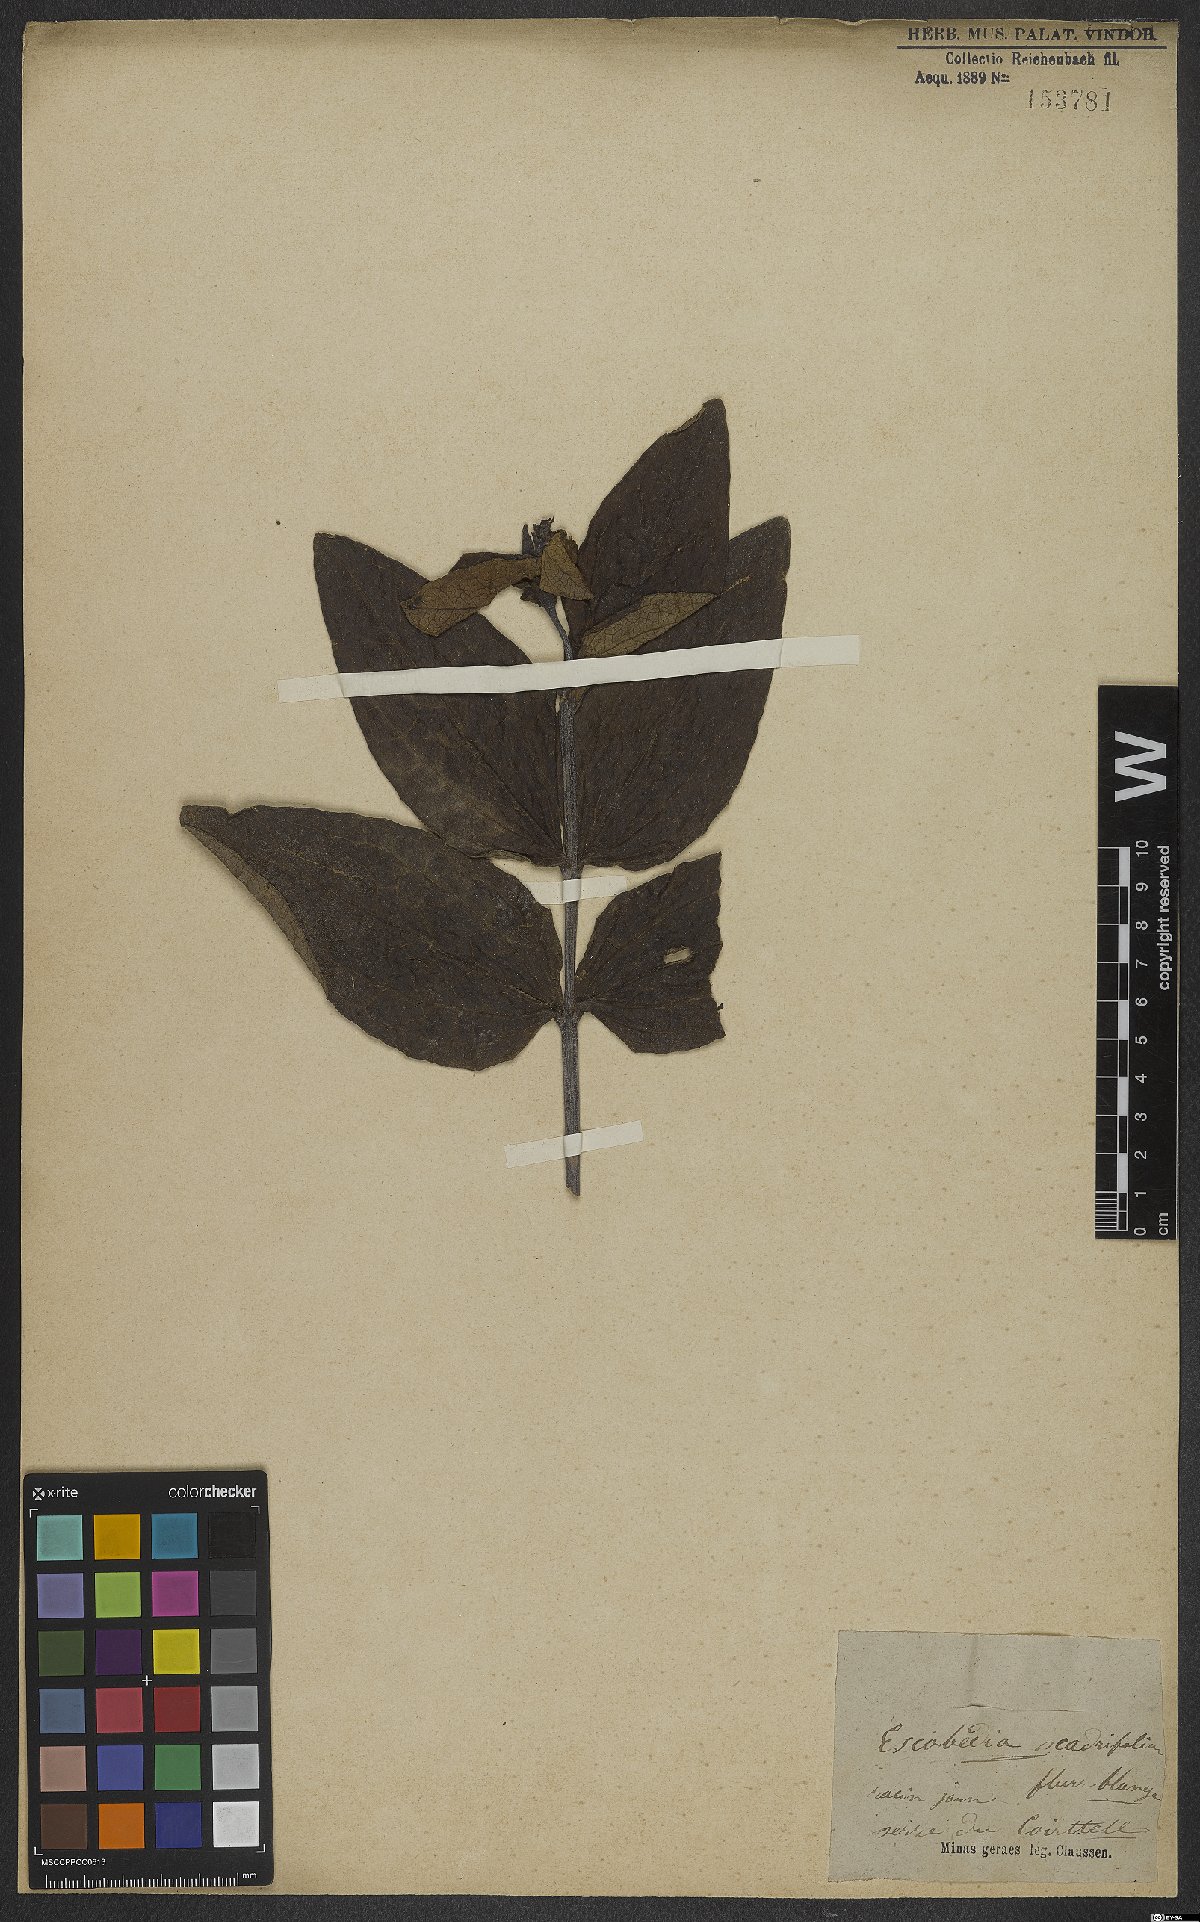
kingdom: Plantae
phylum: Tracheophyta
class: Magnoliopsida
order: Lamiales
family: Orobanchaceae
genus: Escobedia
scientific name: Escobedia grandiflora
